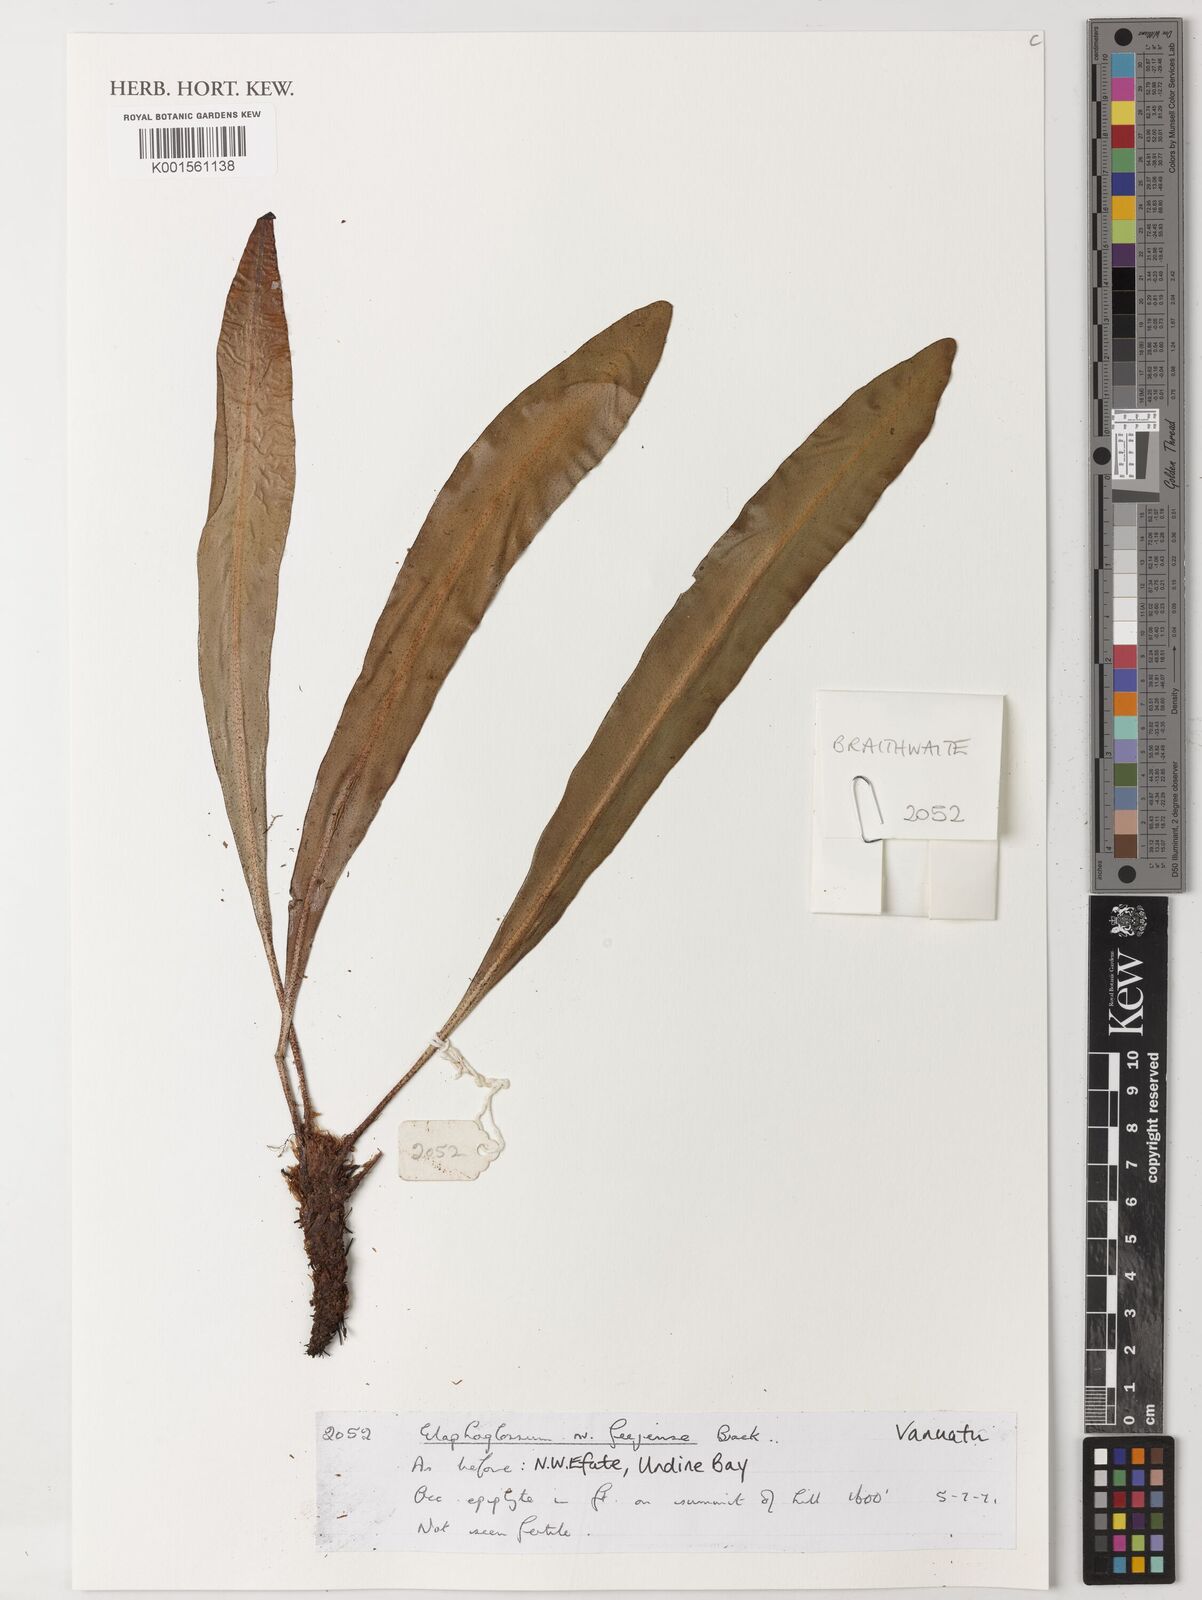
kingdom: Plantae
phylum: Tracheophyta
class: Polypodiopsida
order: Polypodiales
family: Dryopteridaceae
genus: Elaphoglossum
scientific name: Elaphoglossum
